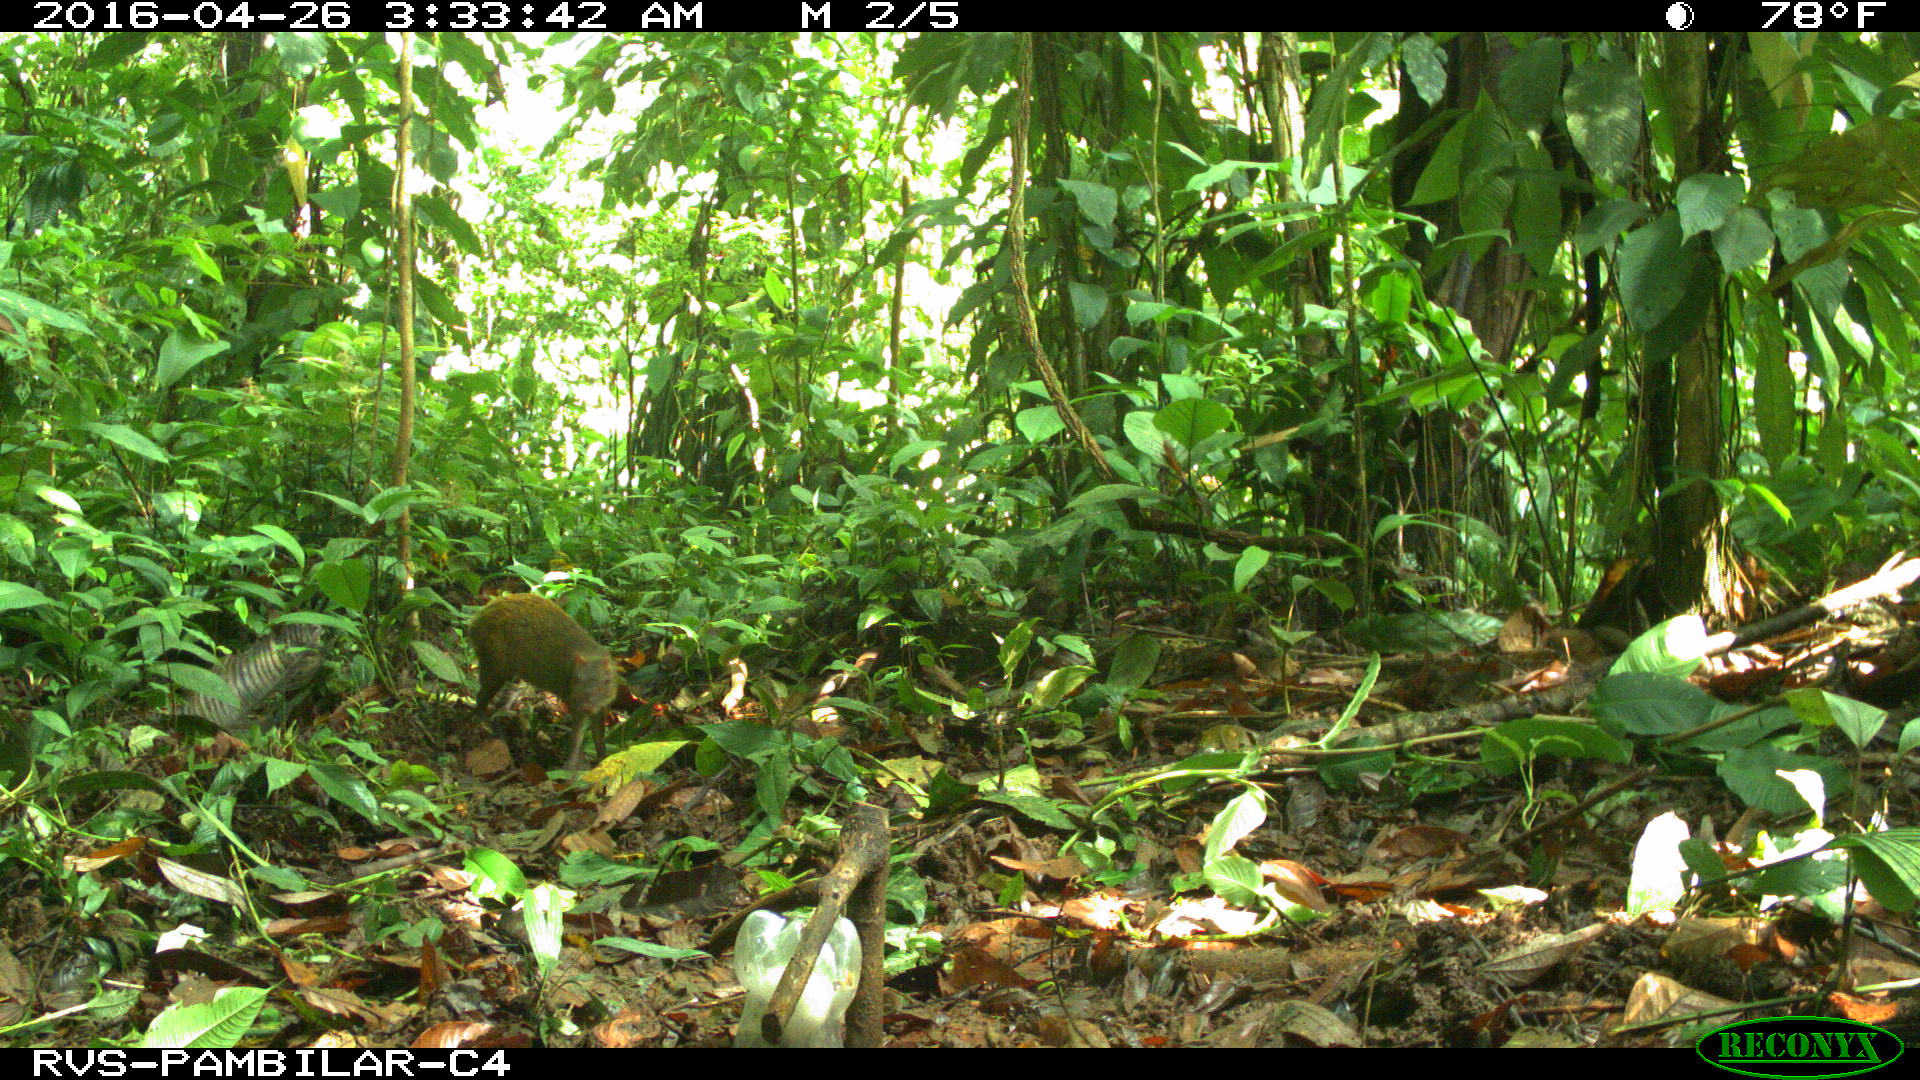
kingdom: Animalia
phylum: Chordata
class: Mammalia
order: Rodentia
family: Dasyproctidae
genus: Dasyprocta
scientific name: Dasyprocta punctata
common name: Central american agouti
